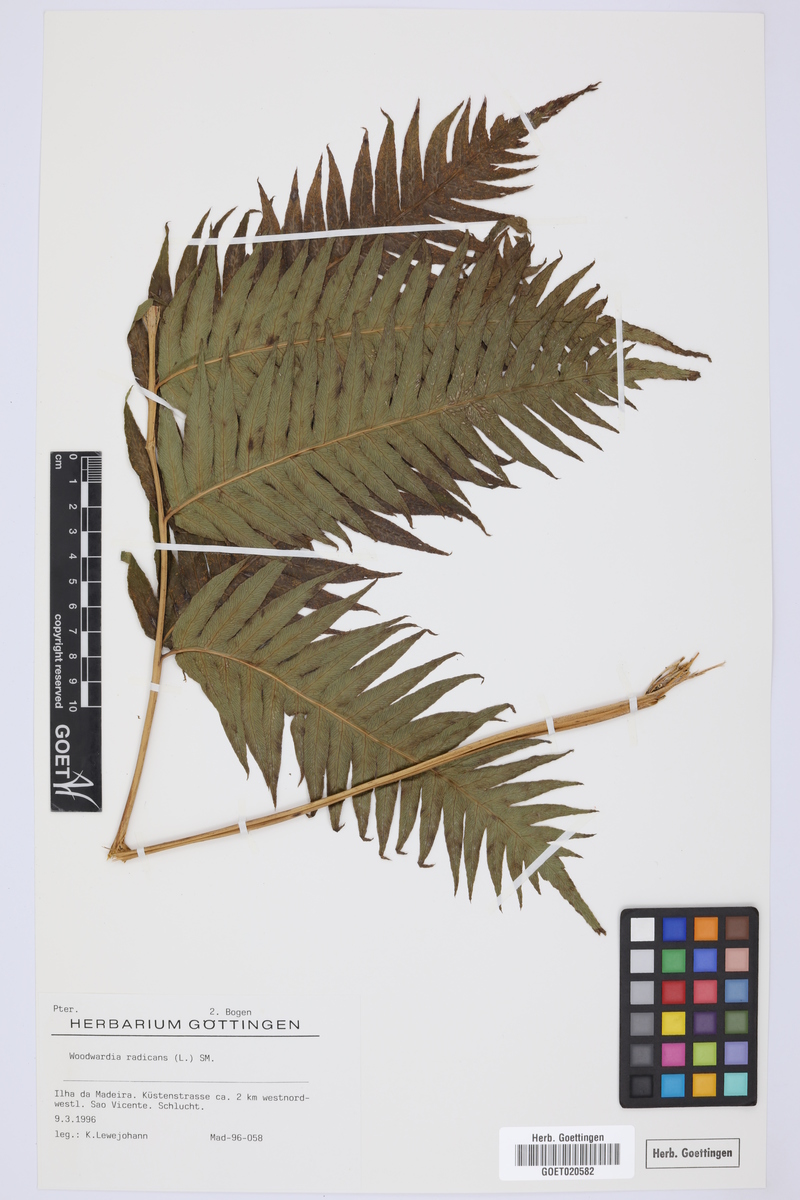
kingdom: Plantae
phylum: Tracheophyta
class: Polypodiopsida
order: Polypodiales
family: Blechnaceae
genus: Woodwardia
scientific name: Woodwardia radicans
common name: Rooting chainfern
